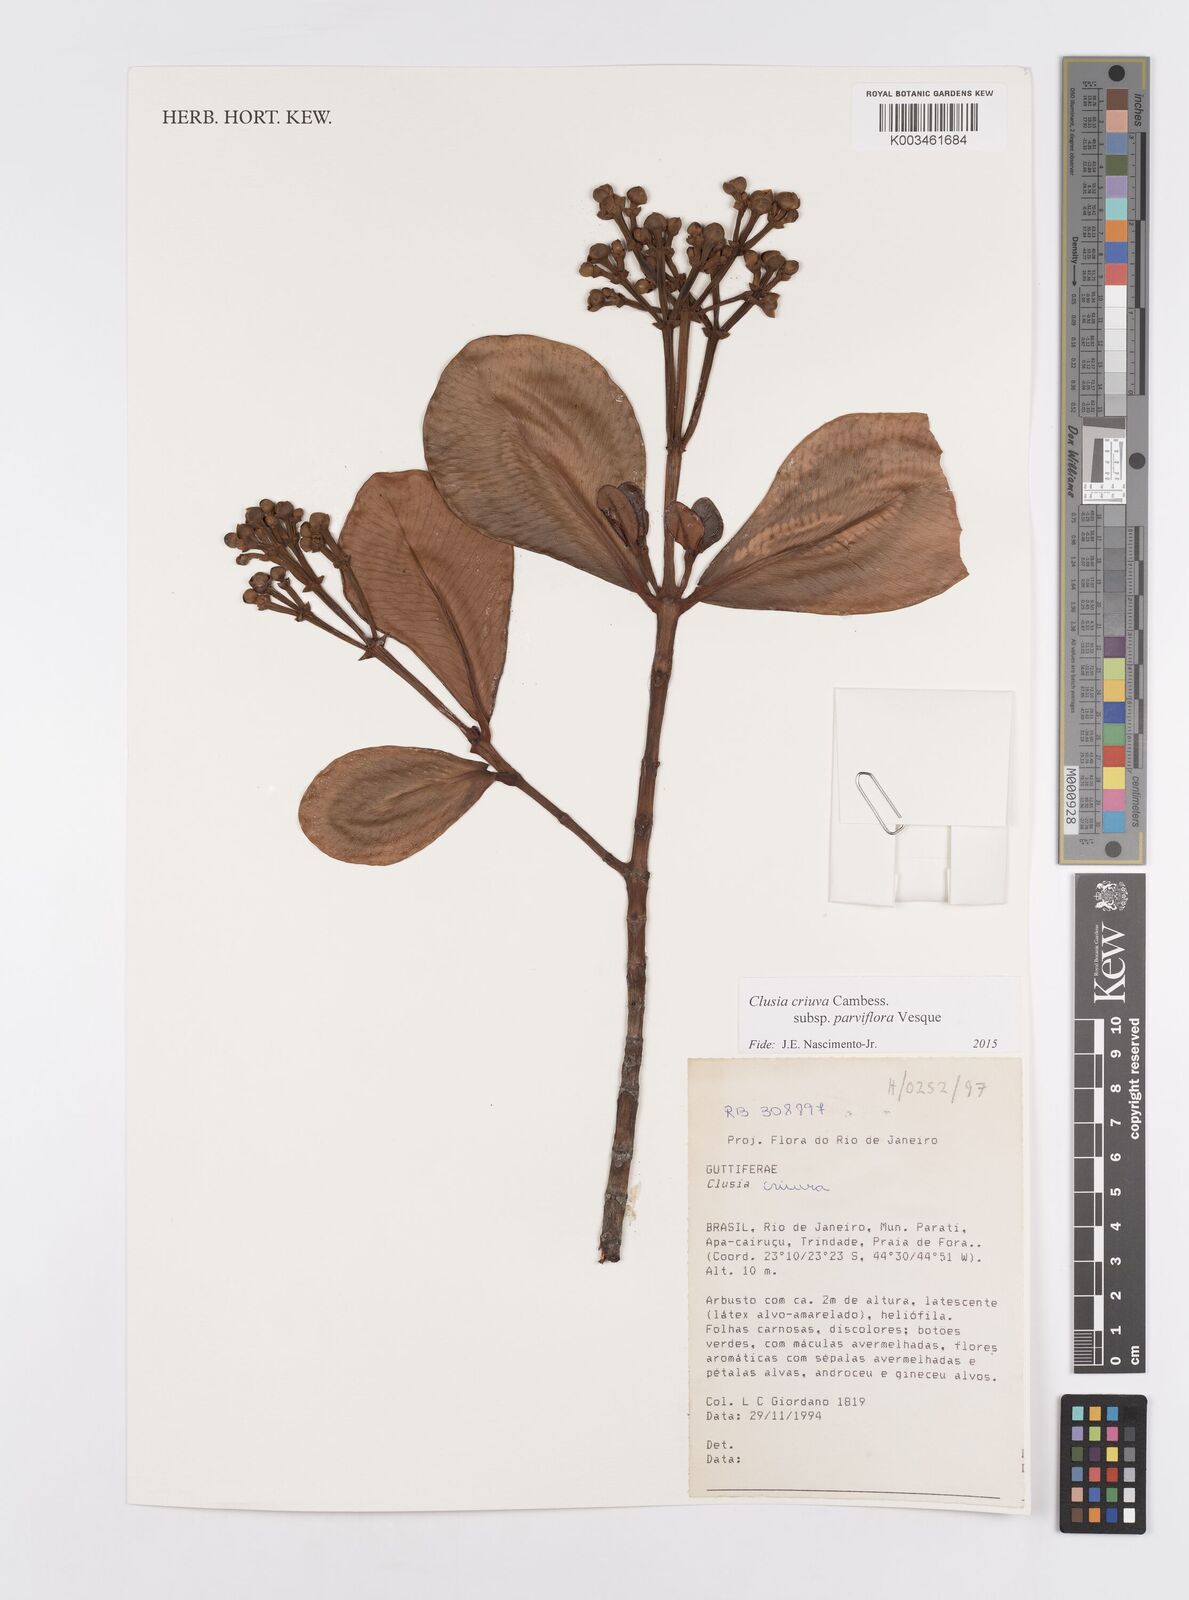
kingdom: Plantae
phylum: Tracheophyta
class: Magnoliopsida
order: Malpighiales
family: Clusiaceae
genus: Clusia
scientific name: Clusia criuva
